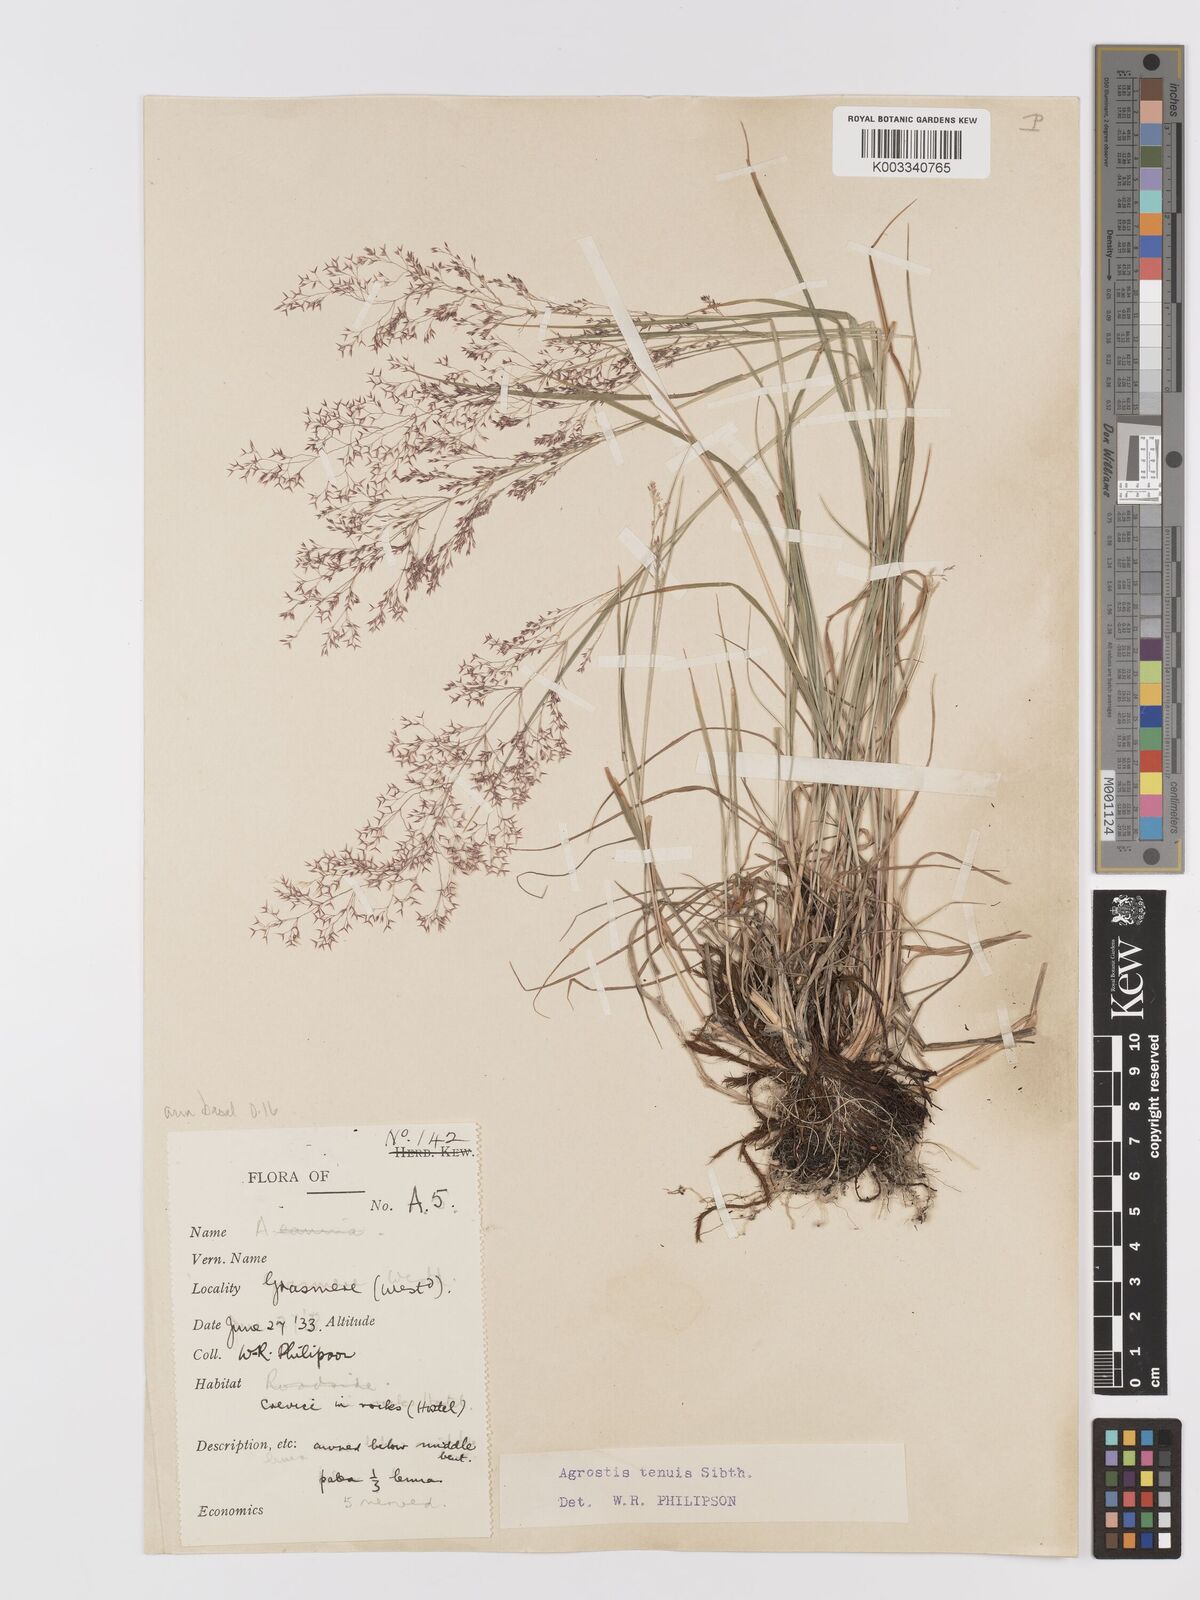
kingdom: Plantae
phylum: Tracheophyta
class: Liliopsida
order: Poales
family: Poaceae
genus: Agrostis
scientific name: Agrostis capillaris
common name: Colonial bentgrass
